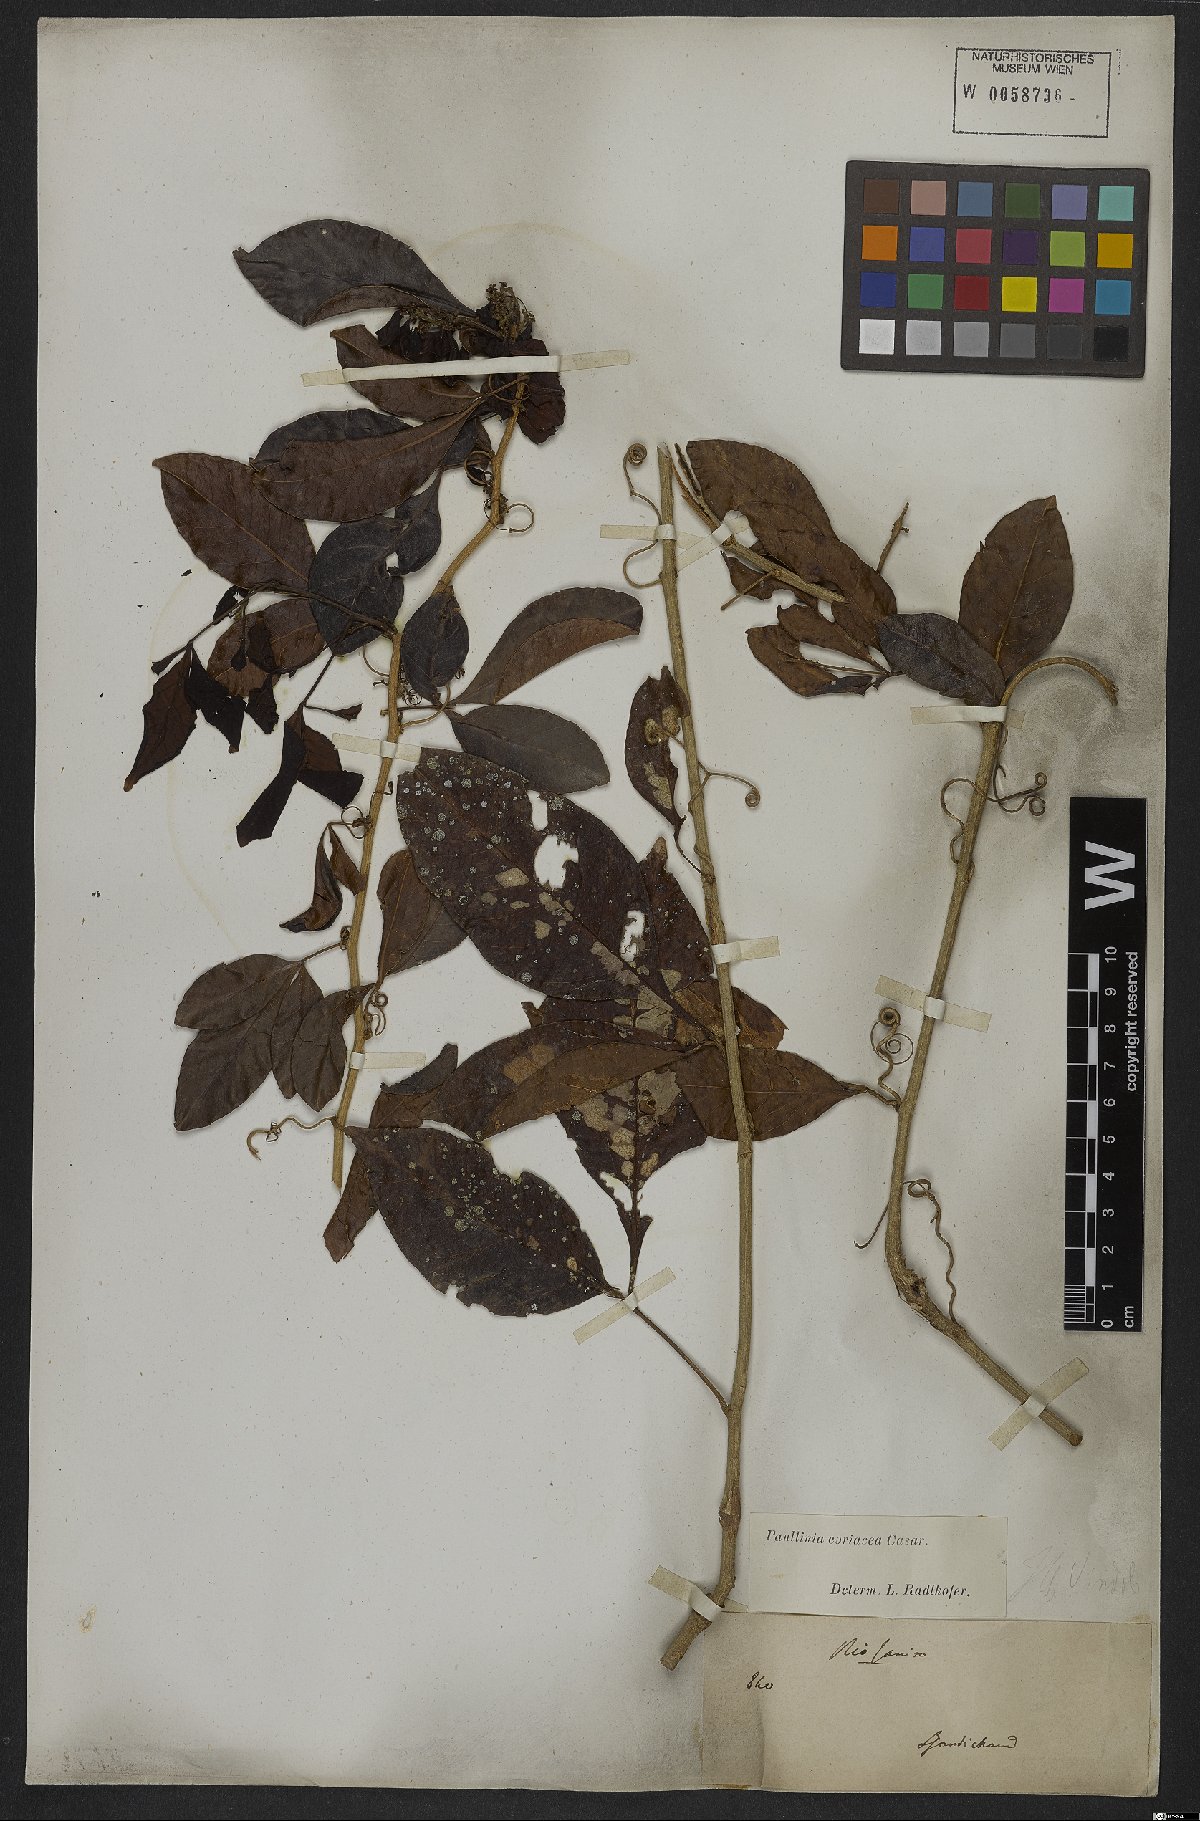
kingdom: Plantae
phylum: Tracheophyta
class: Magnoliopsida
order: Sapindales
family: Sapindaceae
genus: Paullinia
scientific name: Paullinia coriacea
